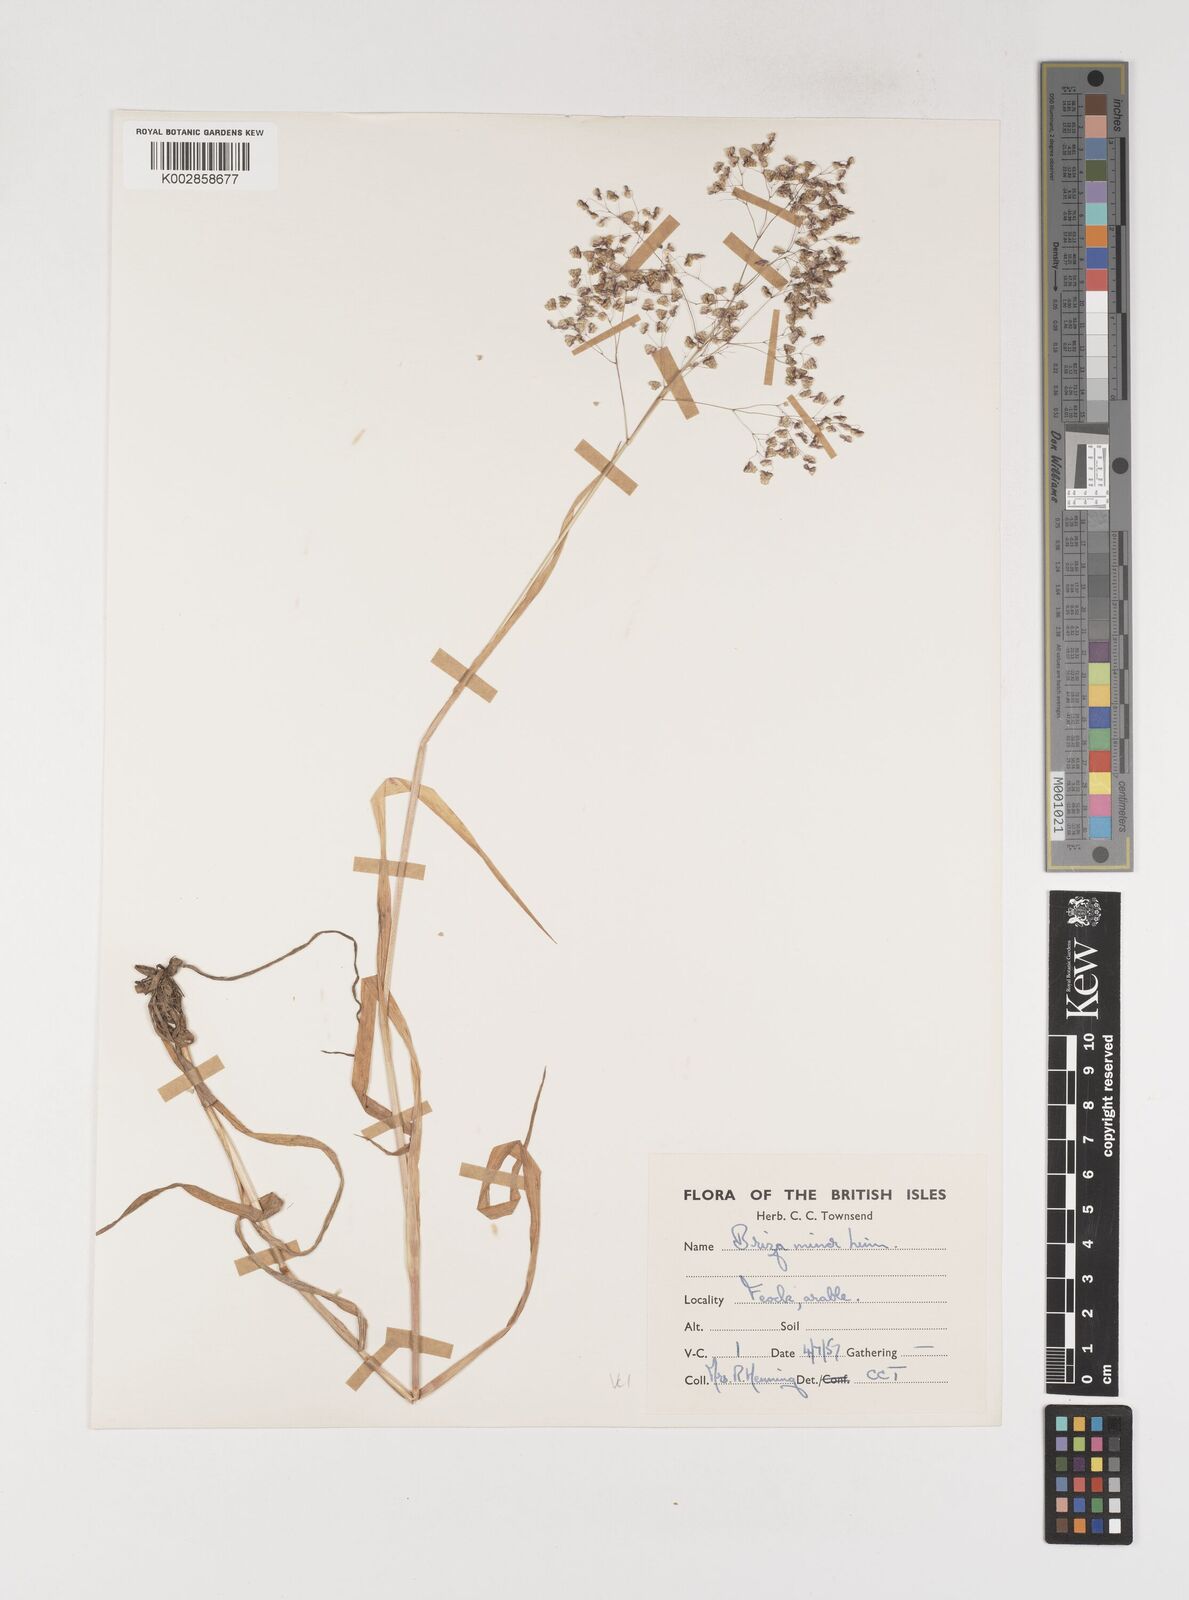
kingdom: Plantae
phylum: Tracheophyta
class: Liliopsida
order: Poales
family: Poaceae
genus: Briza
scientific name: Briza minor
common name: Lesser quaking-grass
